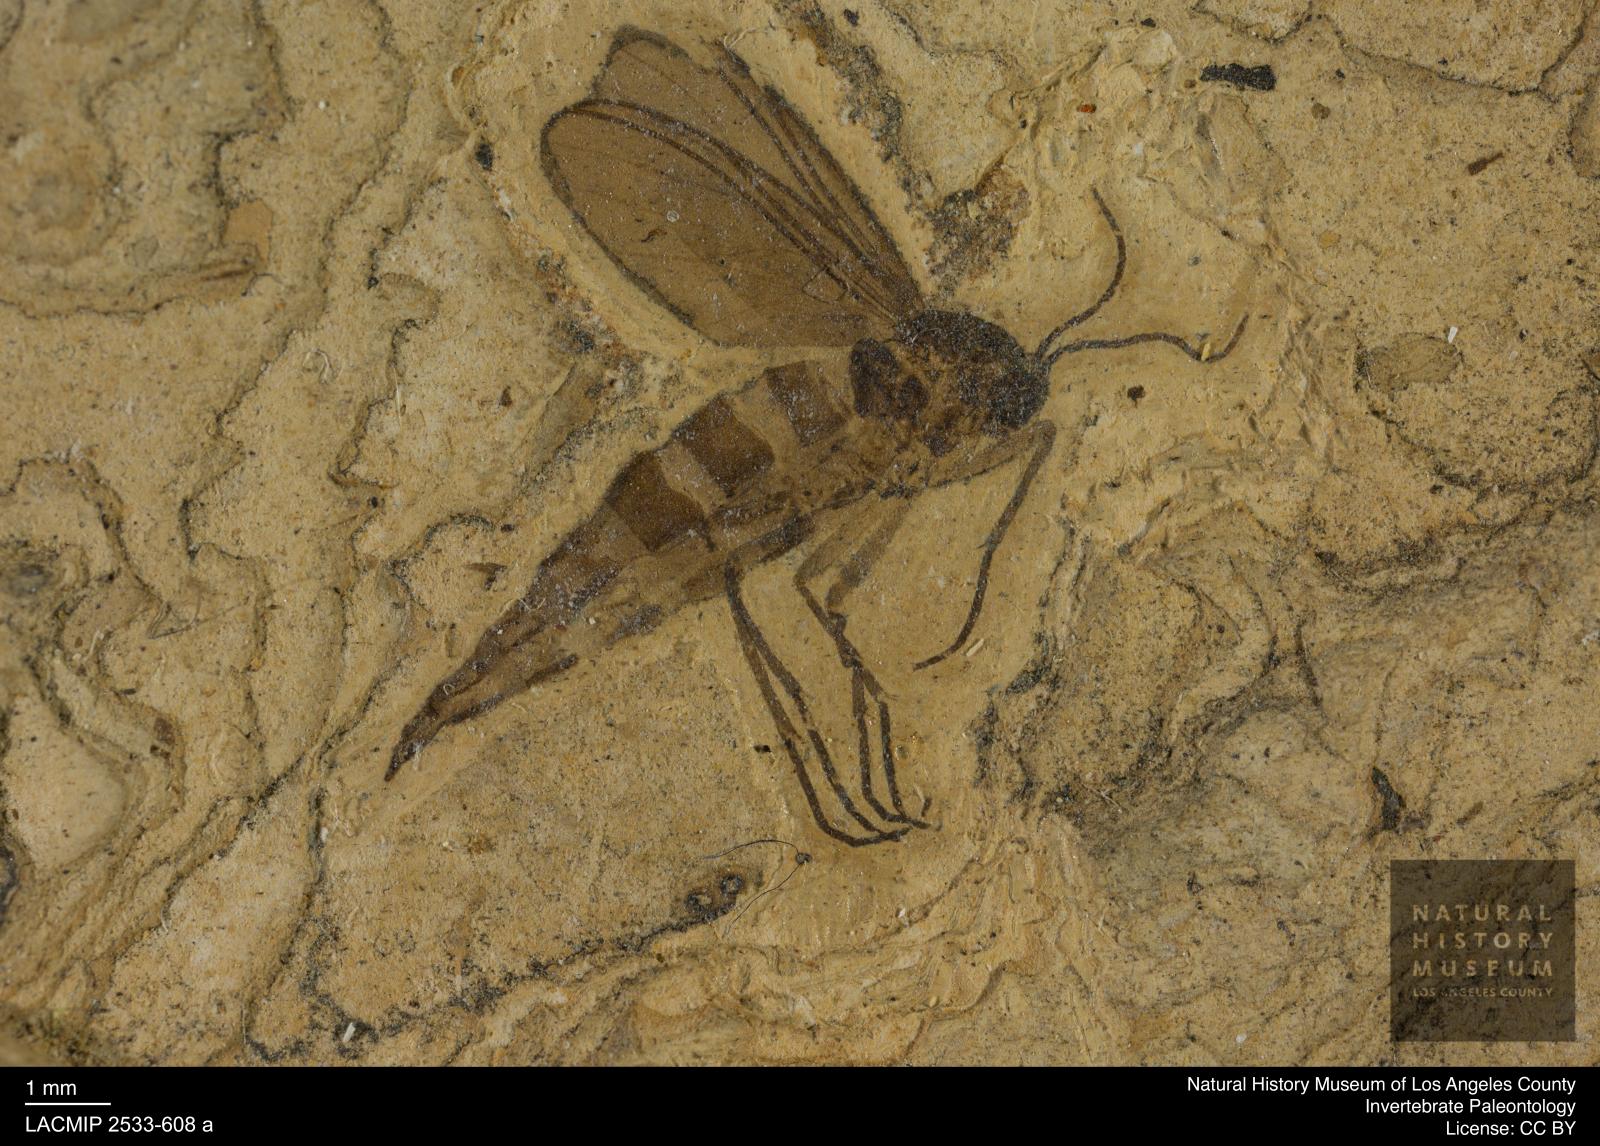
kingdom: Animalia
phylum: Arthropoda
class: Insecta
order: Diptera
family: Sciaridae
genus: Sciara
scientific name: Sciara weylandi
